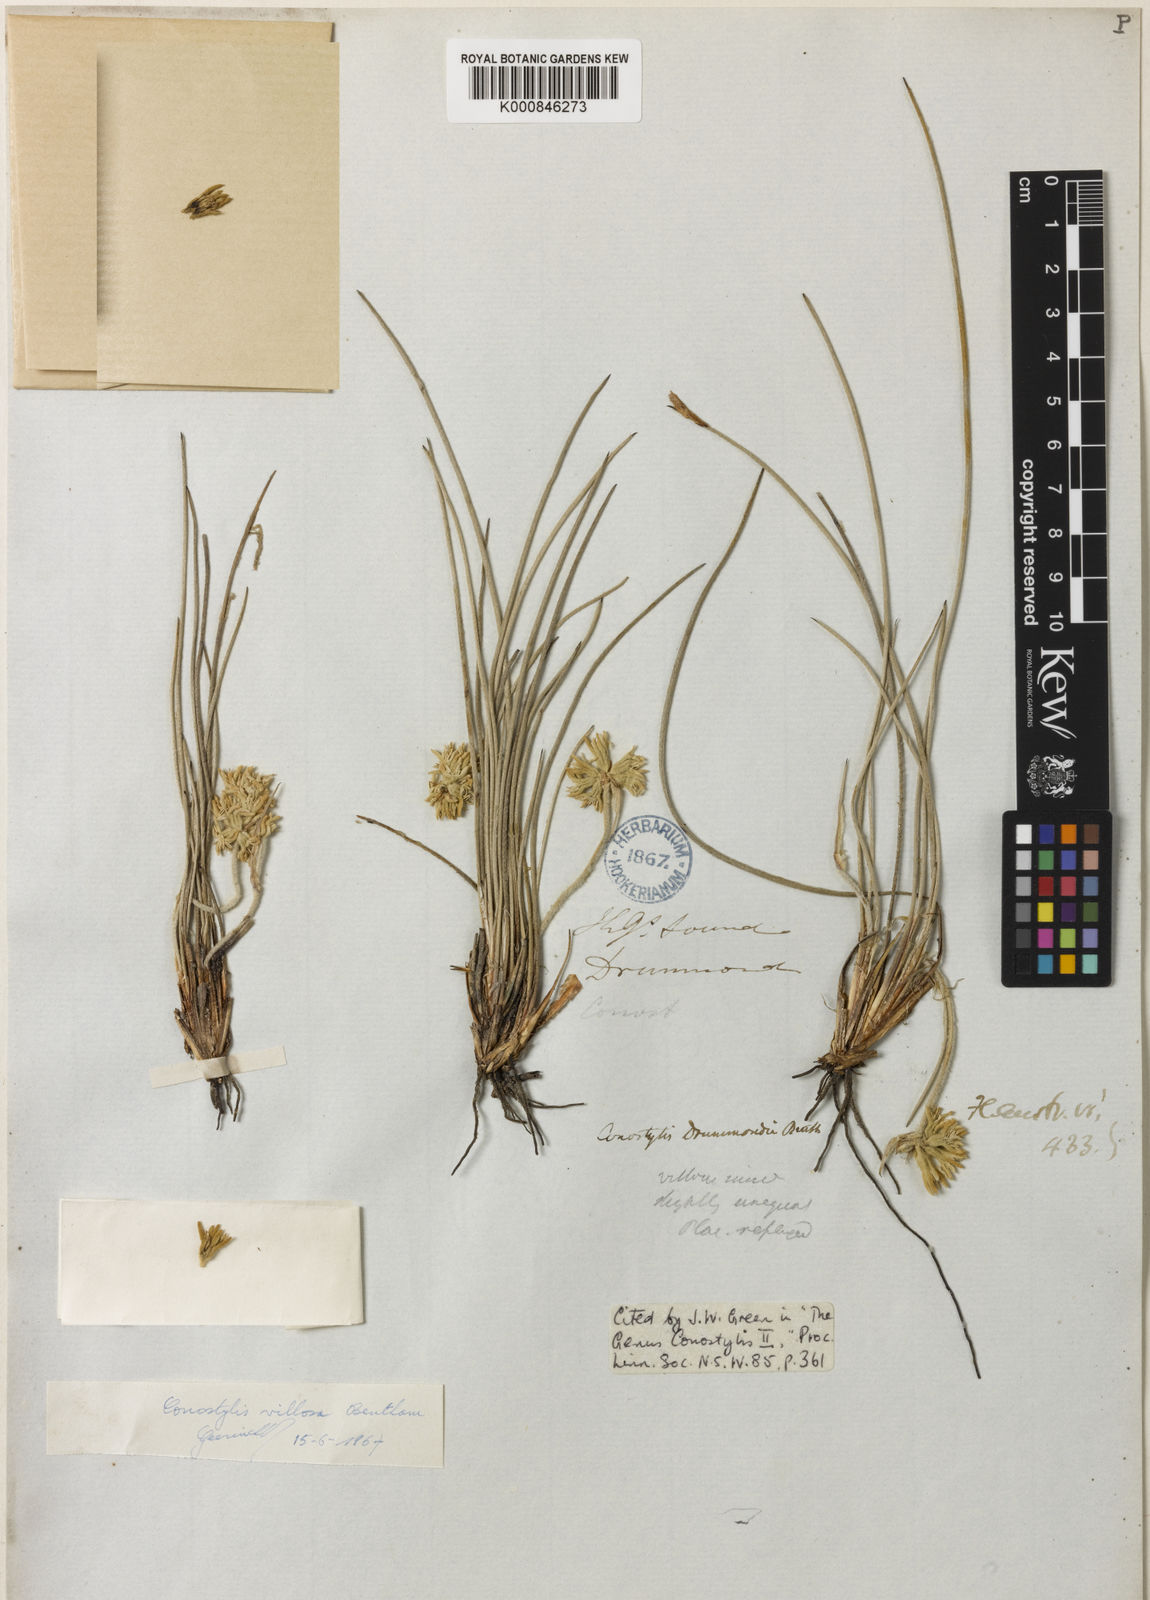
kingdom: Plantae
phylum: Tracheophyta
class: Liliopsida
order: Commelinales
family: Haemodoraceae
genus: Conostylis
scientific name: Conostylis villosa
